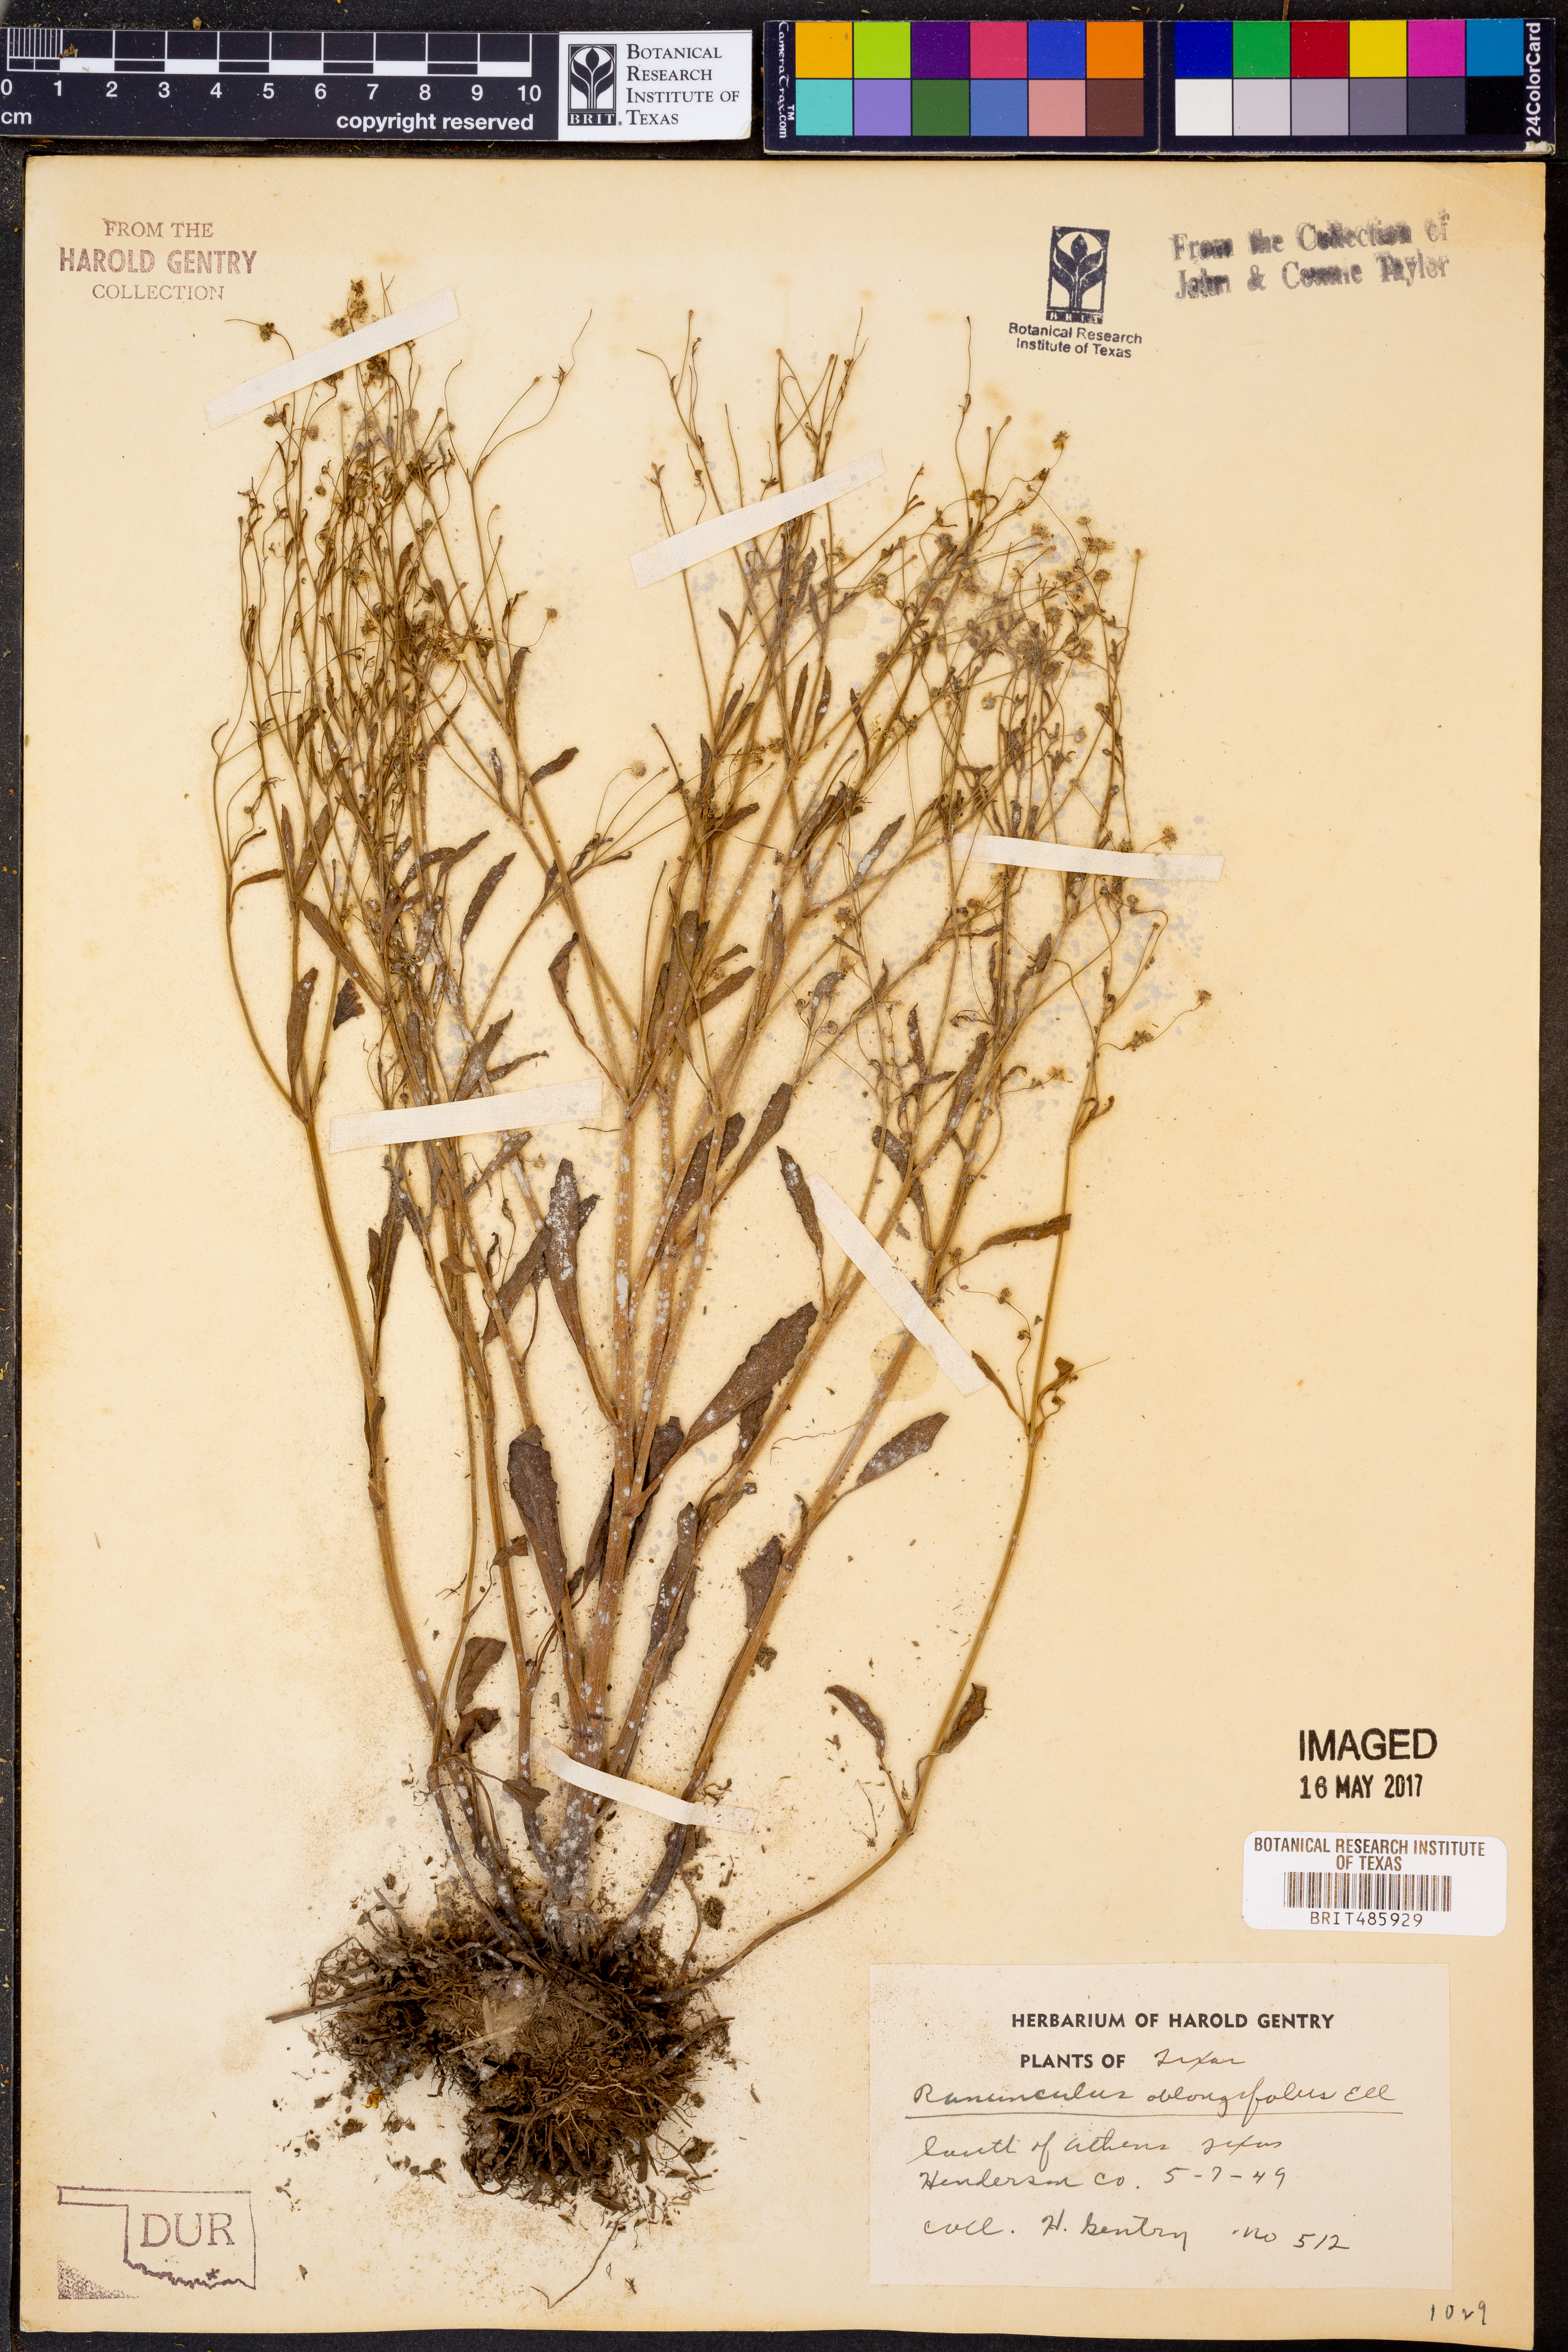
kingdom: Plantae
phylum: Tracheophyta
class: Magnoliopsida
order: Ranunculales
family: Ranunculaceae
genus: Ranunculus
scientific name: Ranunculus pusillus
